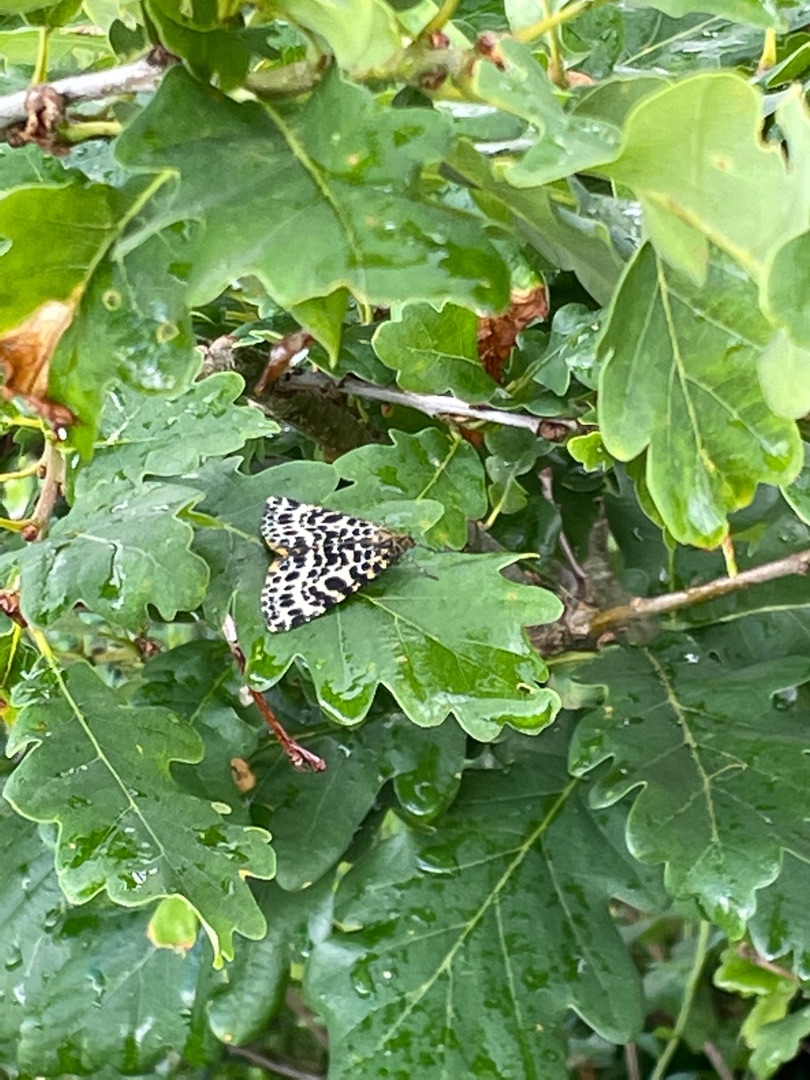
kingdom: Animalia
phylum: Arthropoda
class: Insecta
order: Lepidoptera
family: Geometridae
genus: Arichanna
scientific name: Arichanna melanaria
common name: Mose-harlekin
